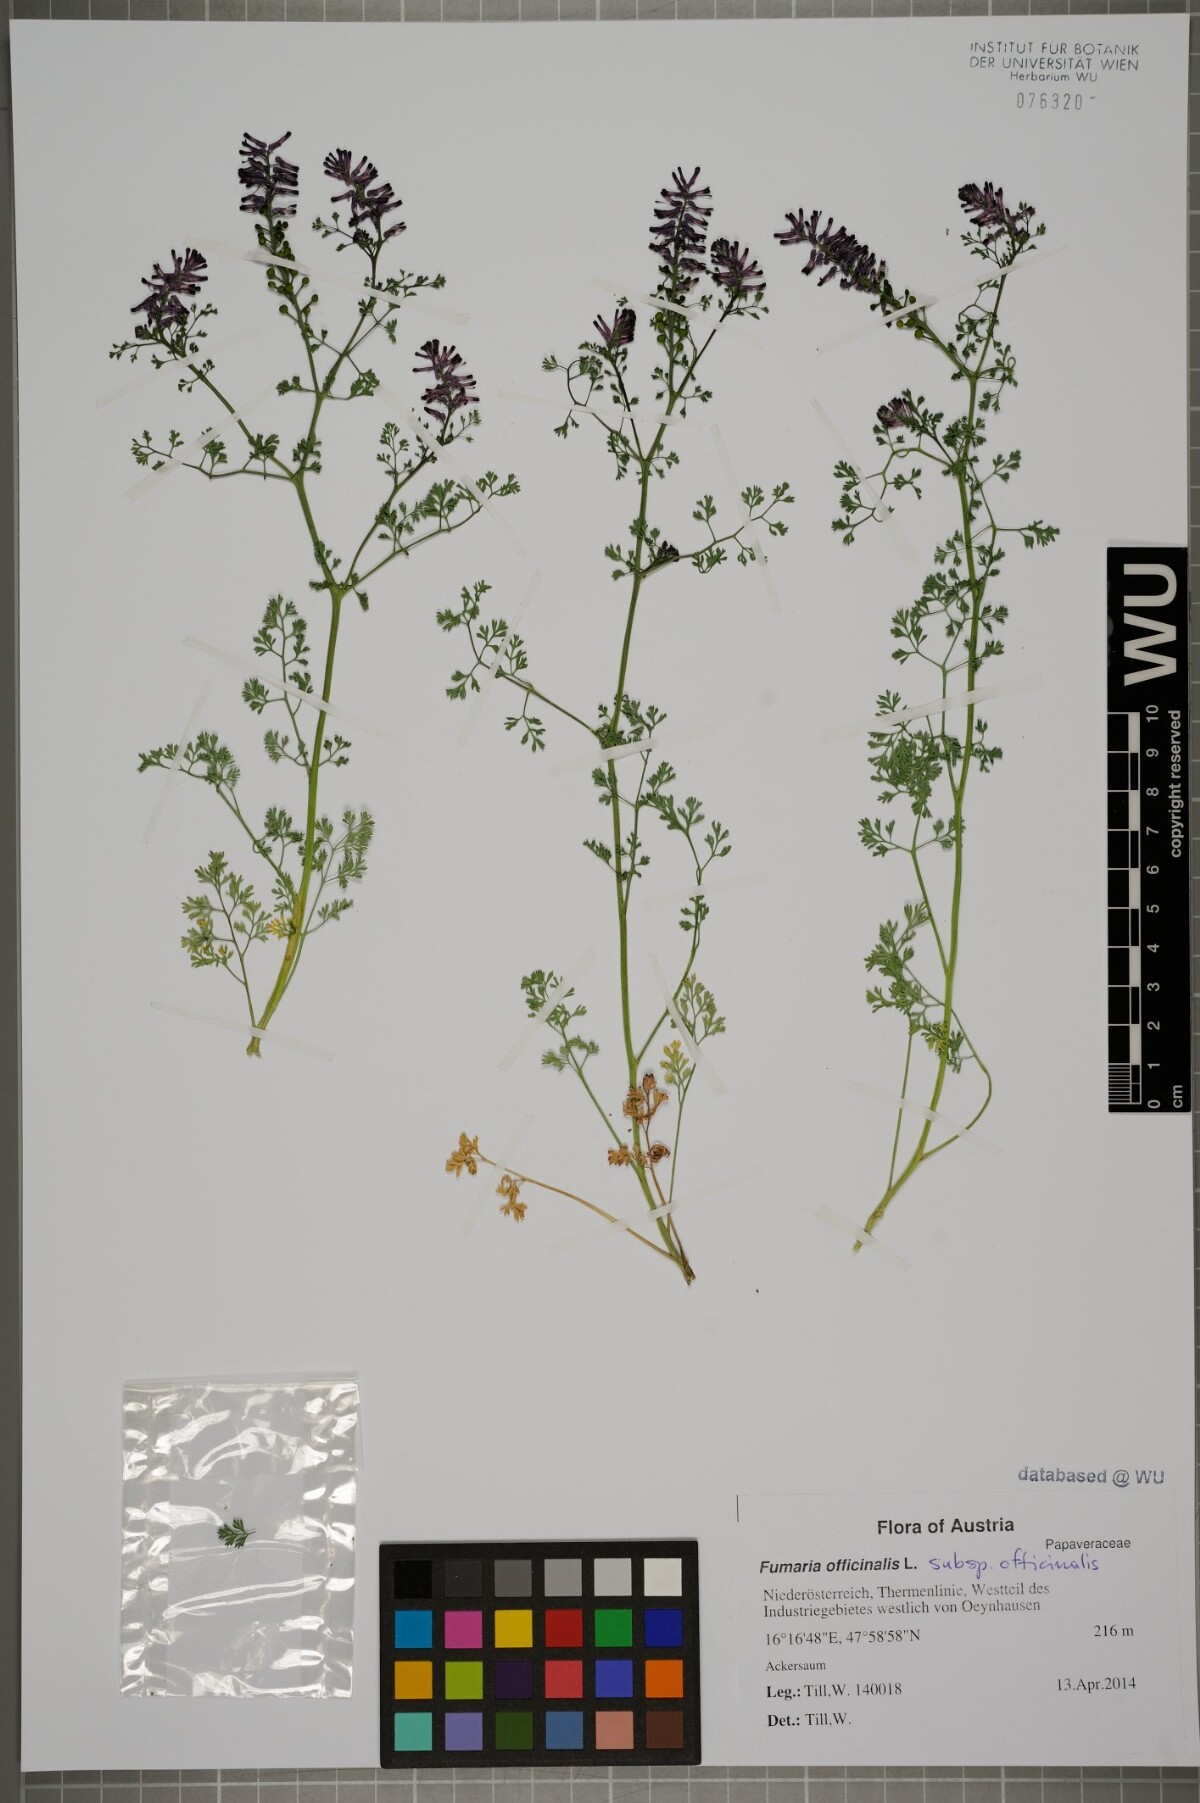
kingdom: Plantae
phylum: Tracheophyta
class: Magnoliopsida
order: Ranunculales
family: Papaveraceae
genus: Fumaria
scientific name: Fumaria officinalis
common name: Common fumitory
